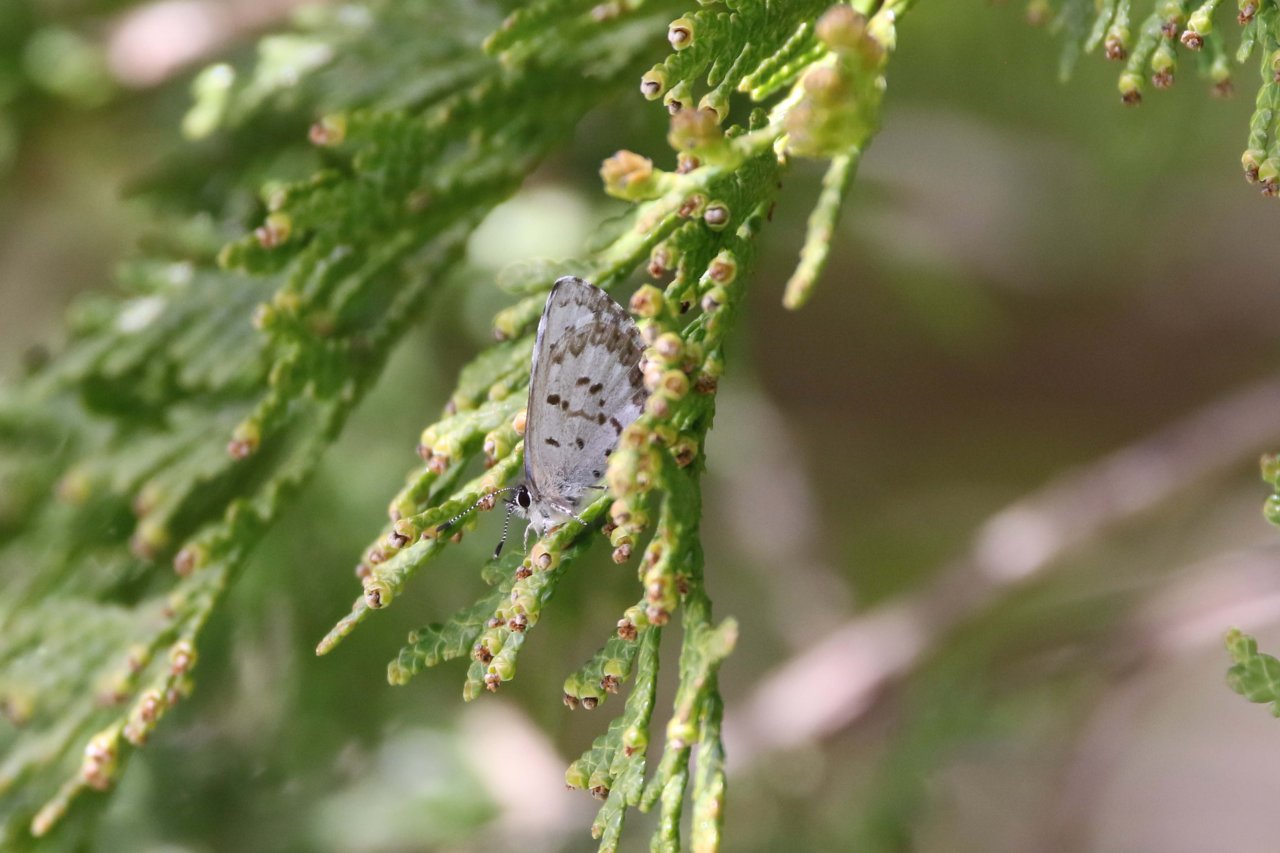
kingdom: Animalia
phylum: Arthropoda
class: Insecta
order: Lepidoptera
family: Lycaenidae
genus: Celastrina
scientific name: Celastrina
